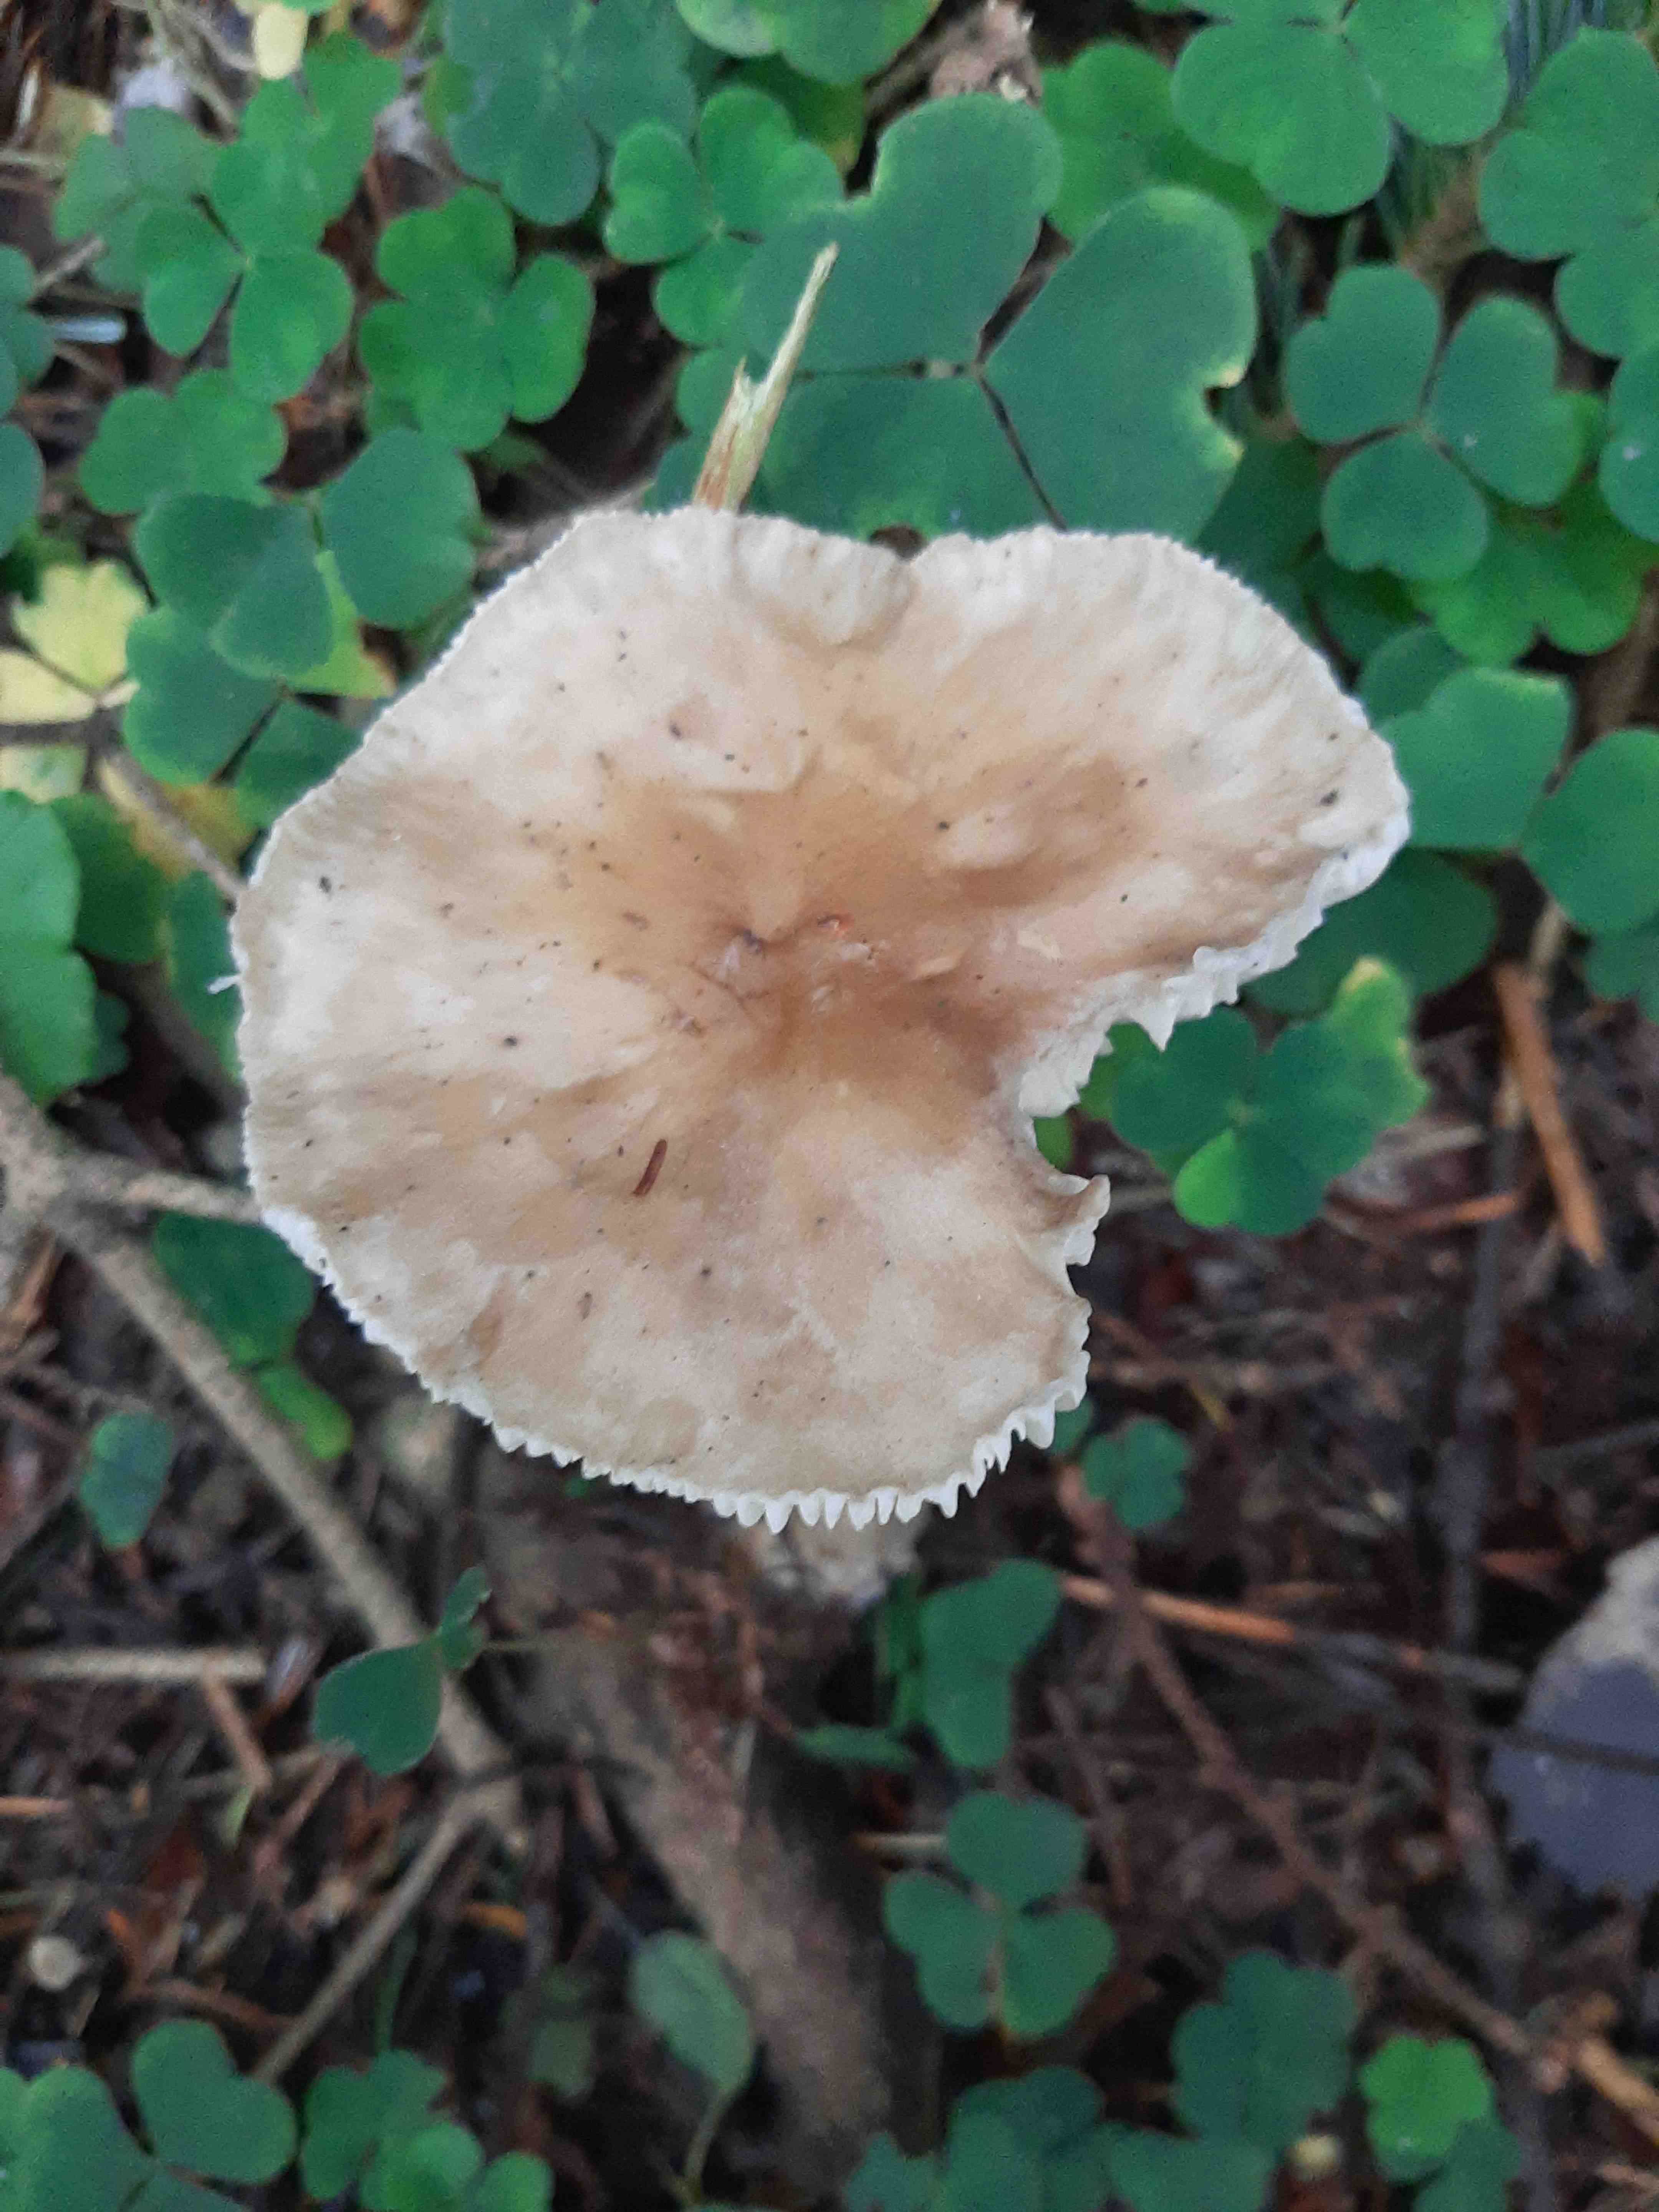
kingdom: Fungi
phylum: Basidiomycota
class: Agaricomycetes
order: Agaricales
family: Hygrophoraceae
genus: Ampulloclitocybe
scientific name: Ampulloclitocybe clavipes
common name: køllefod
